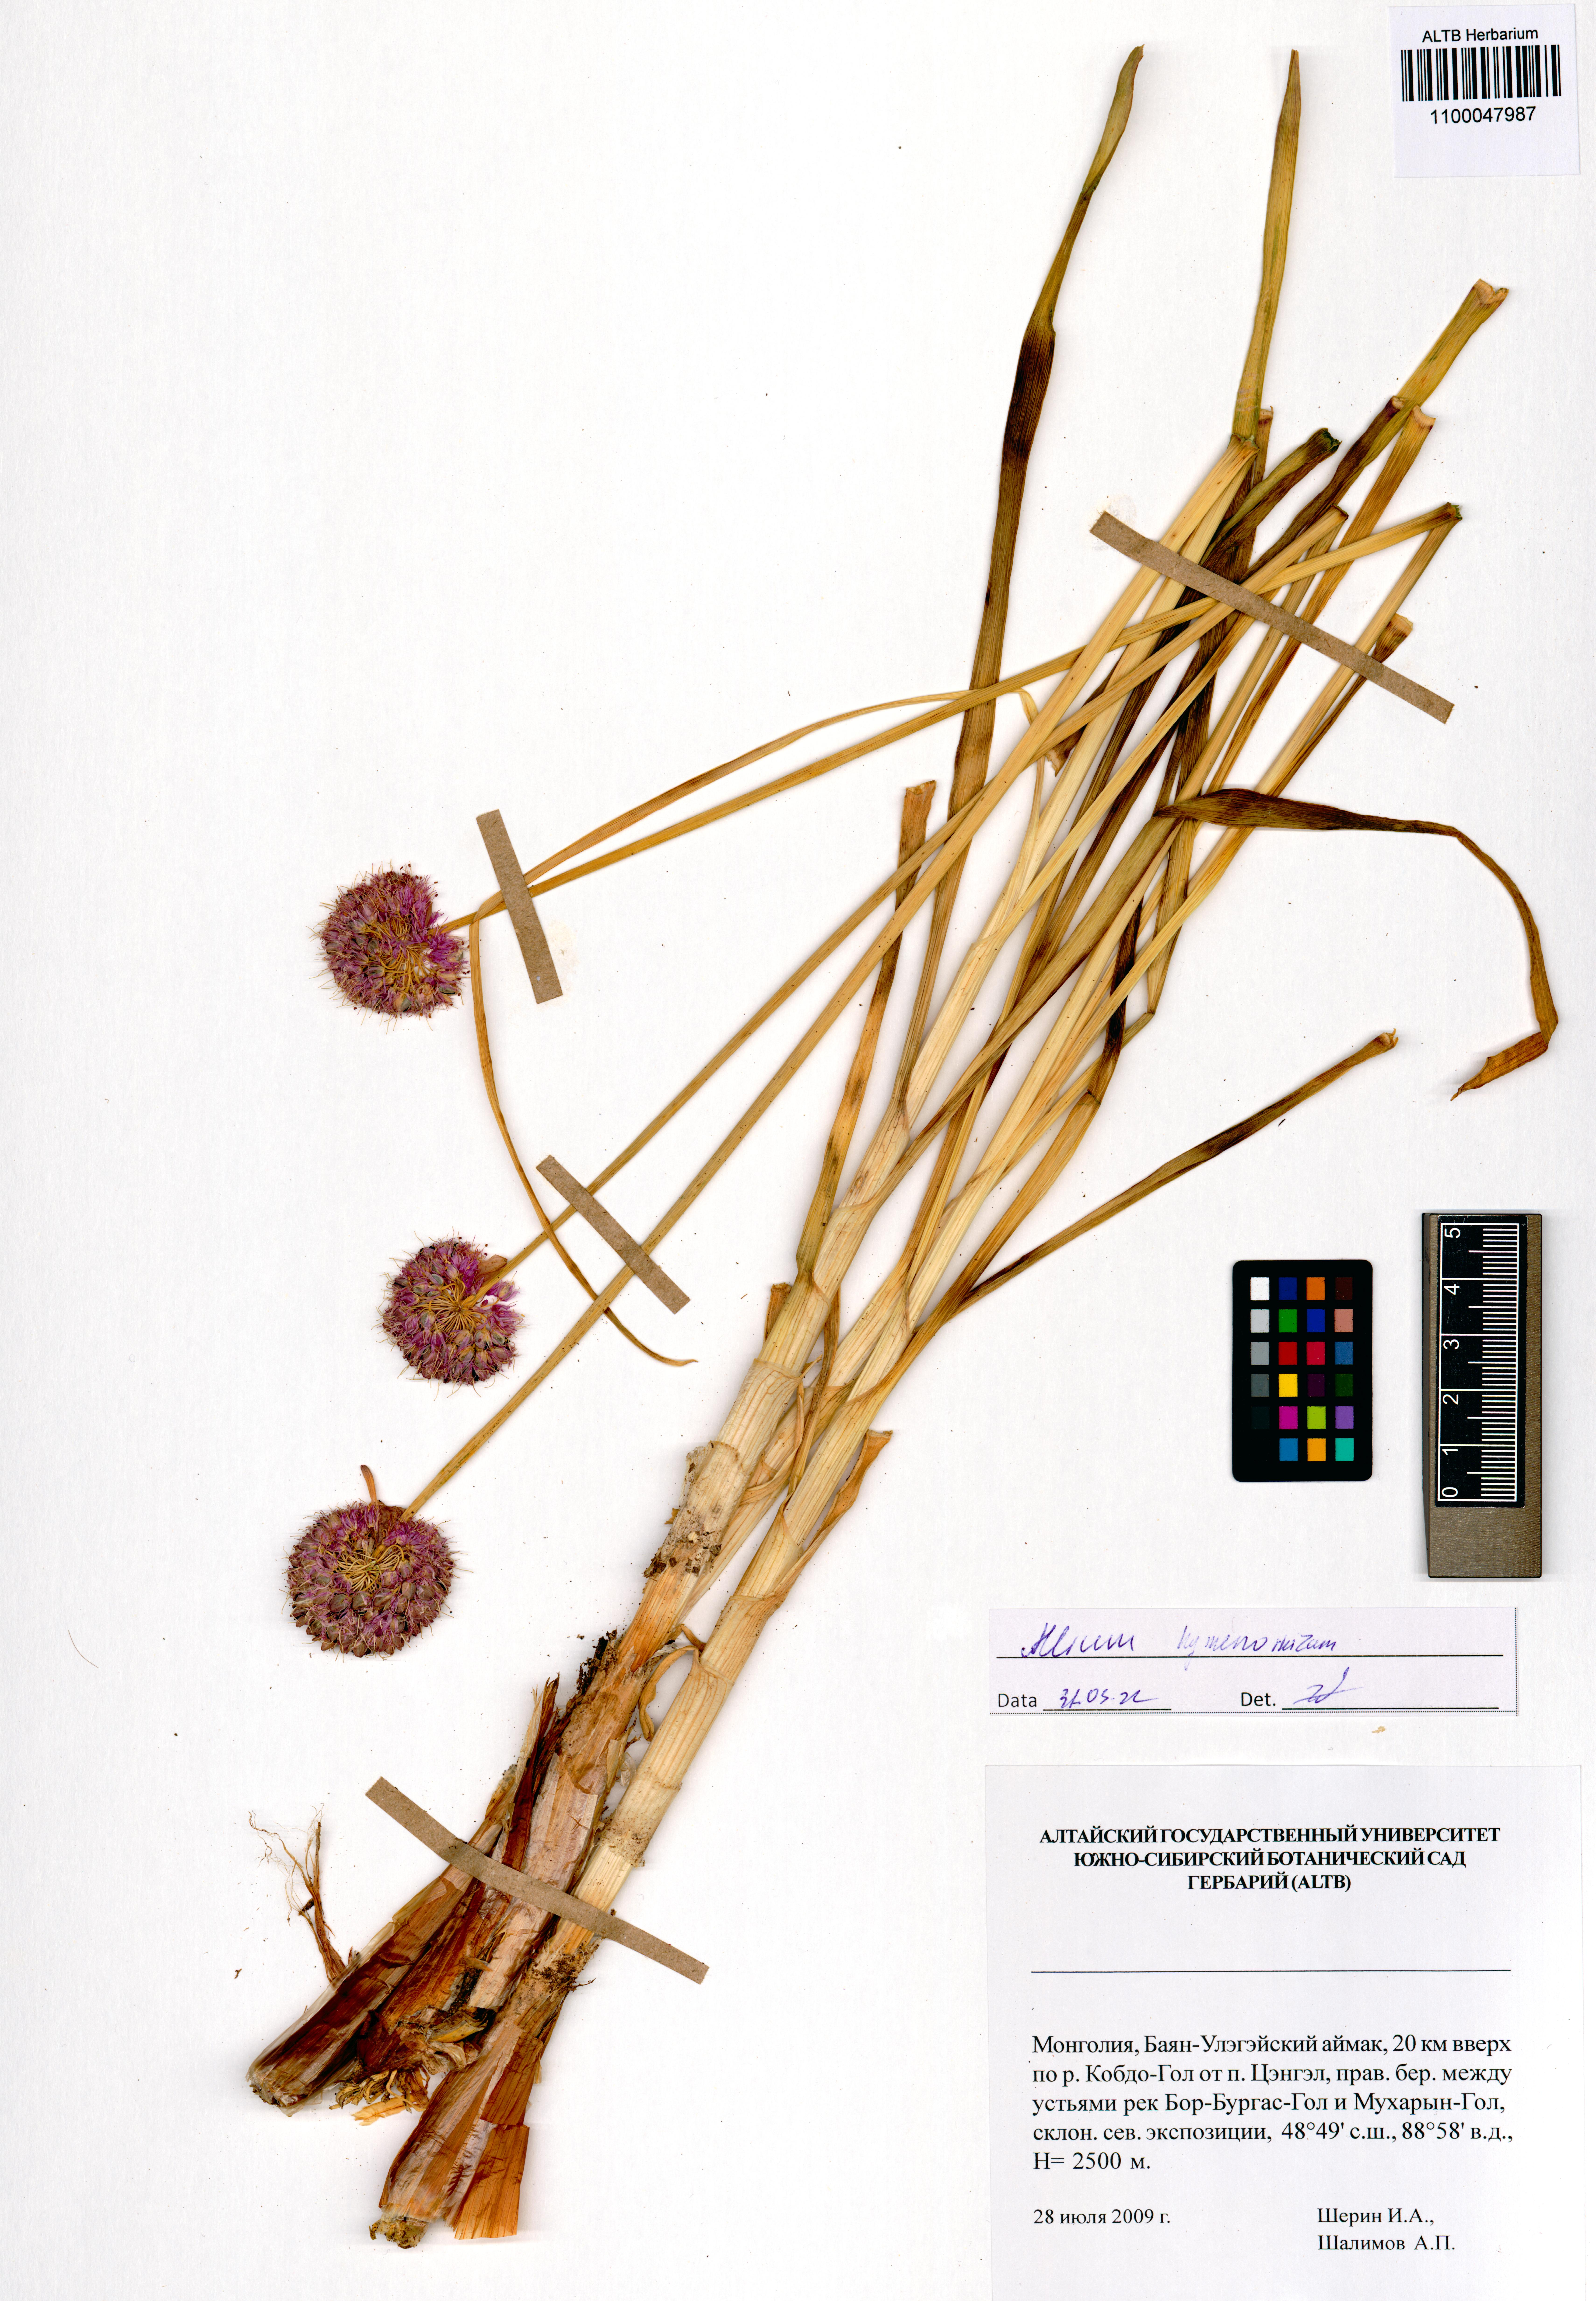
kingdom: Plantae
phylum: Tracheophyta
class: Liliopsida
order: Asparagales
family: Amaryllidaceae
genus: Allium
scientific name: Allium hymenorhizum
